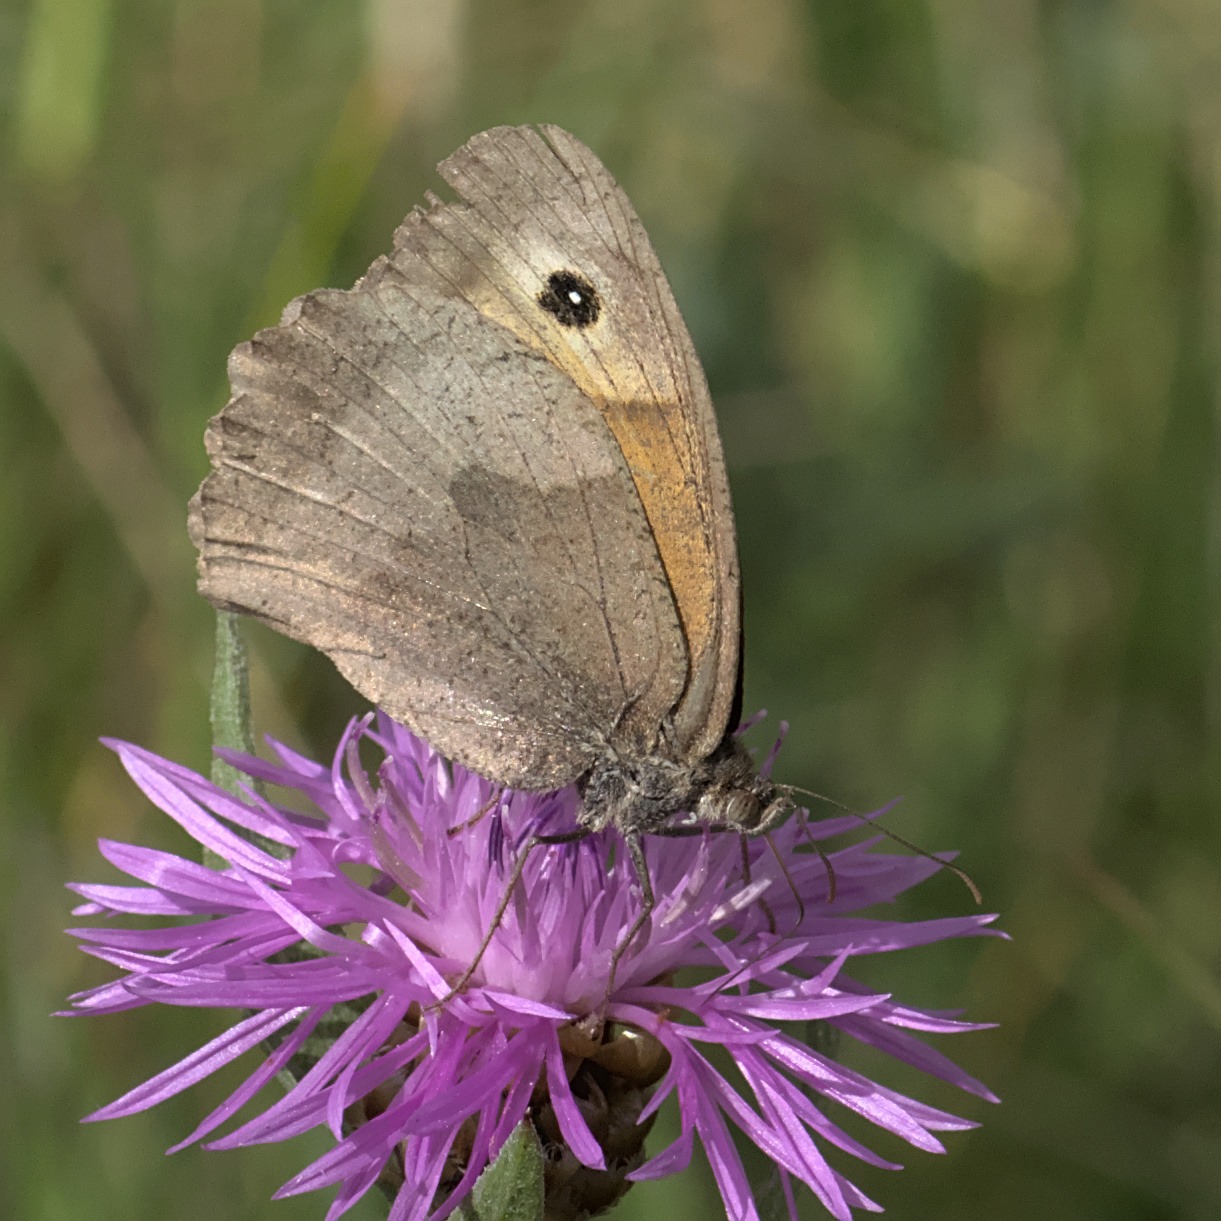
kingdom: Animalia
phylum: Arthropoda
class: Insecta
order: Lepidoptera
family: Nymphalidae
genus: Maniola
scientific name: Maniola jurtina
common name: Græsrandøje
